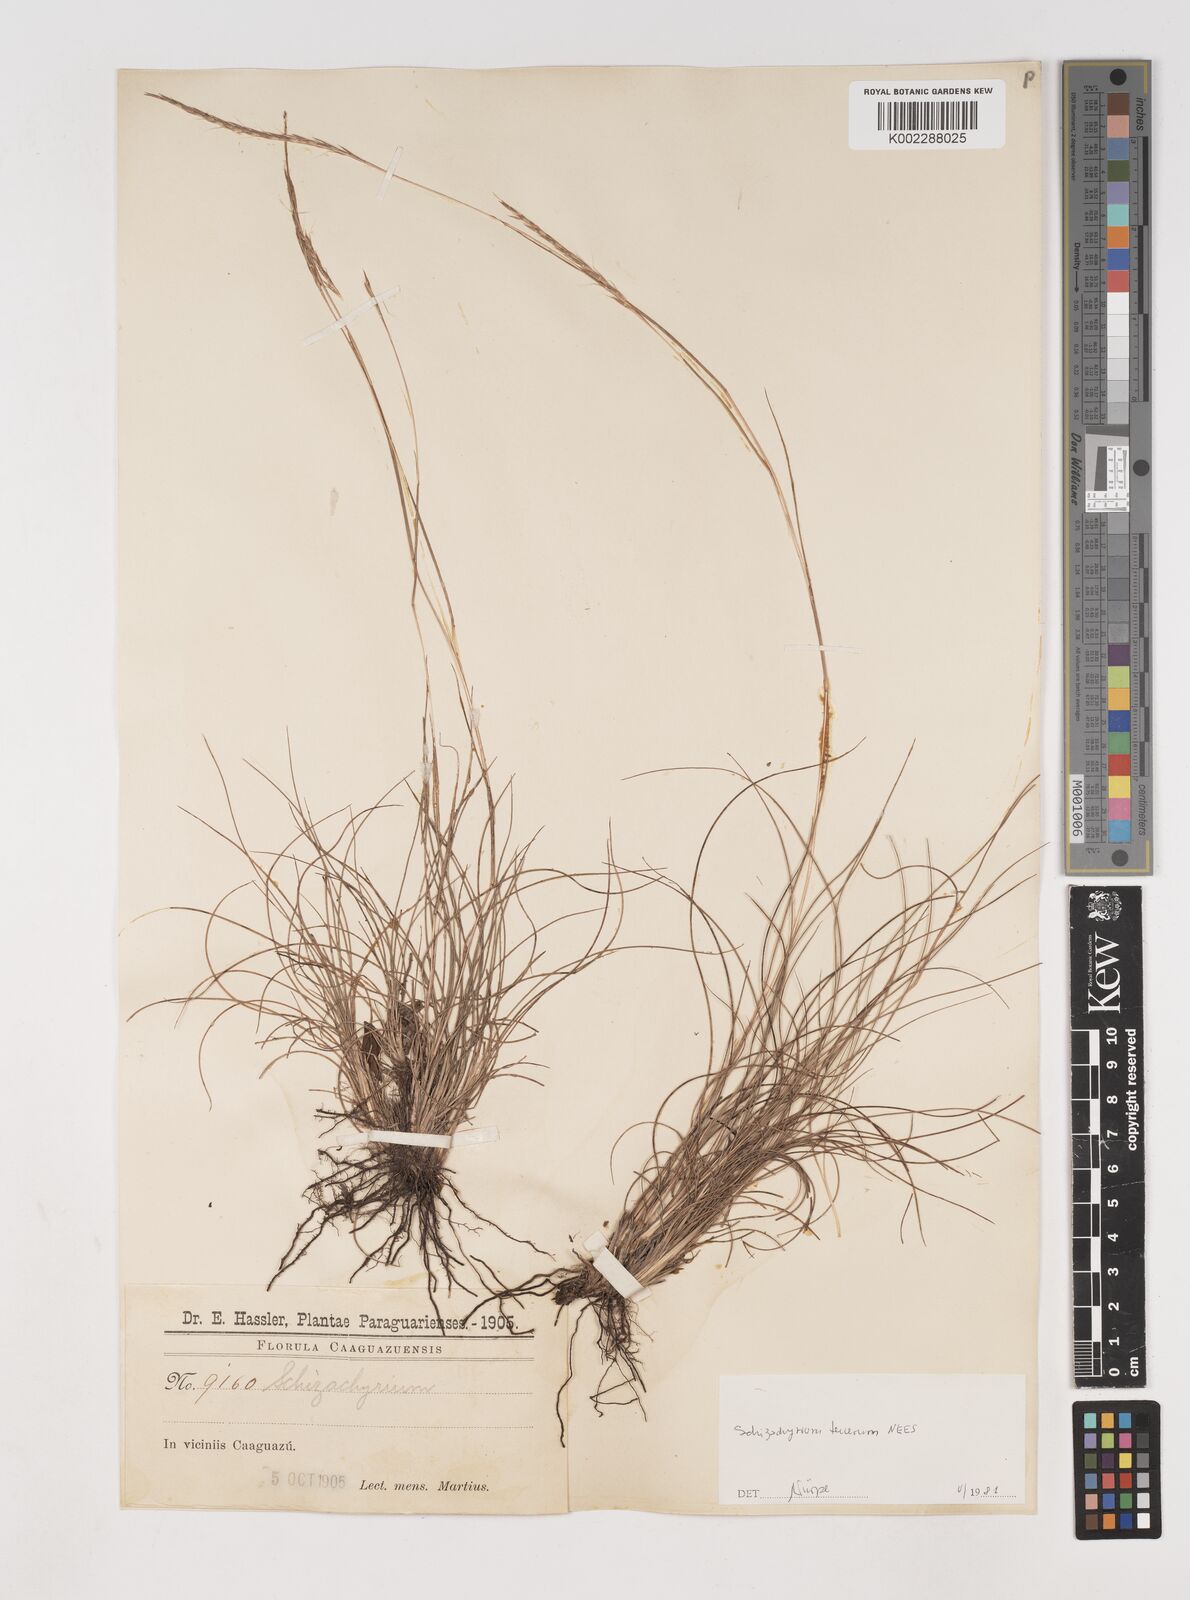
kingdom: Plantae
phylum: Tracheophyta
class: Liliopsida
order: Poales
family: Poaceae
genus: Andropogon
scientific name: Andropogon tener
